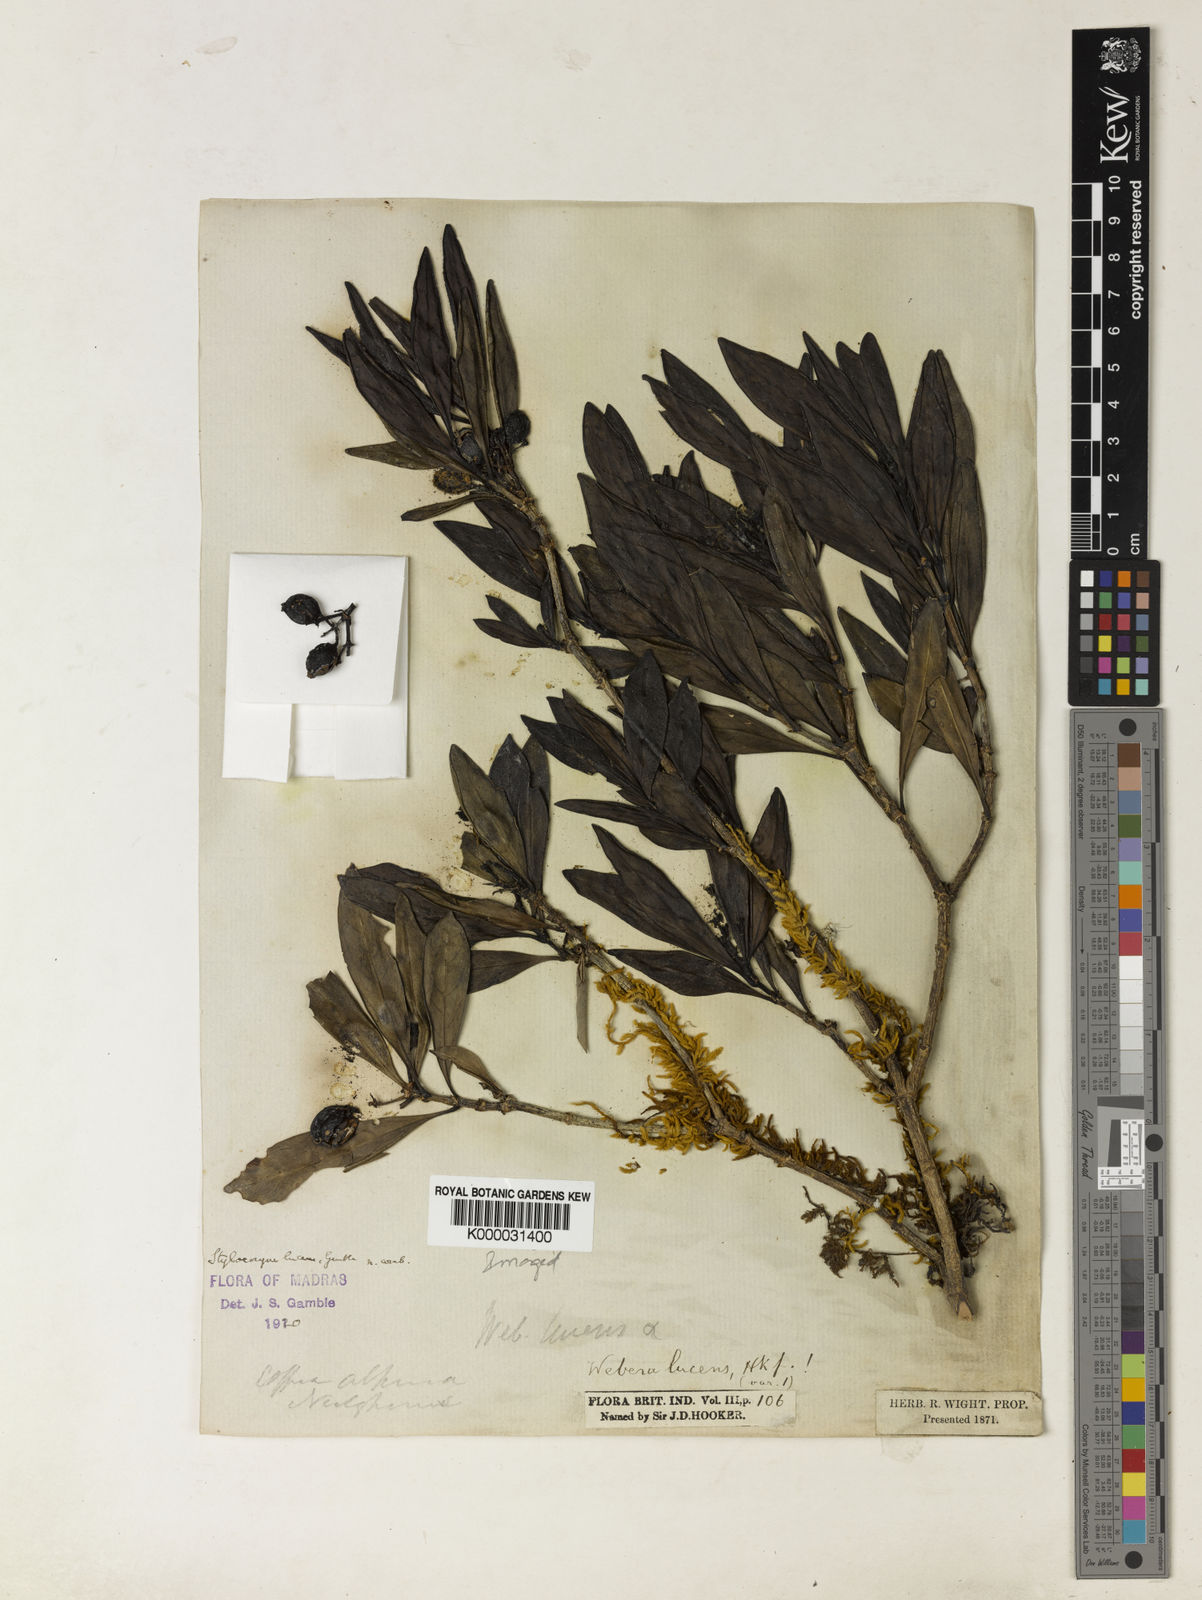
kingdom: Plantae
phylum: Tracheophyta
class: Magnoliopsida
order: Gentianales
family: Rubiaceae
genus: Tarenna
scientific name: Tarenna alpestris
